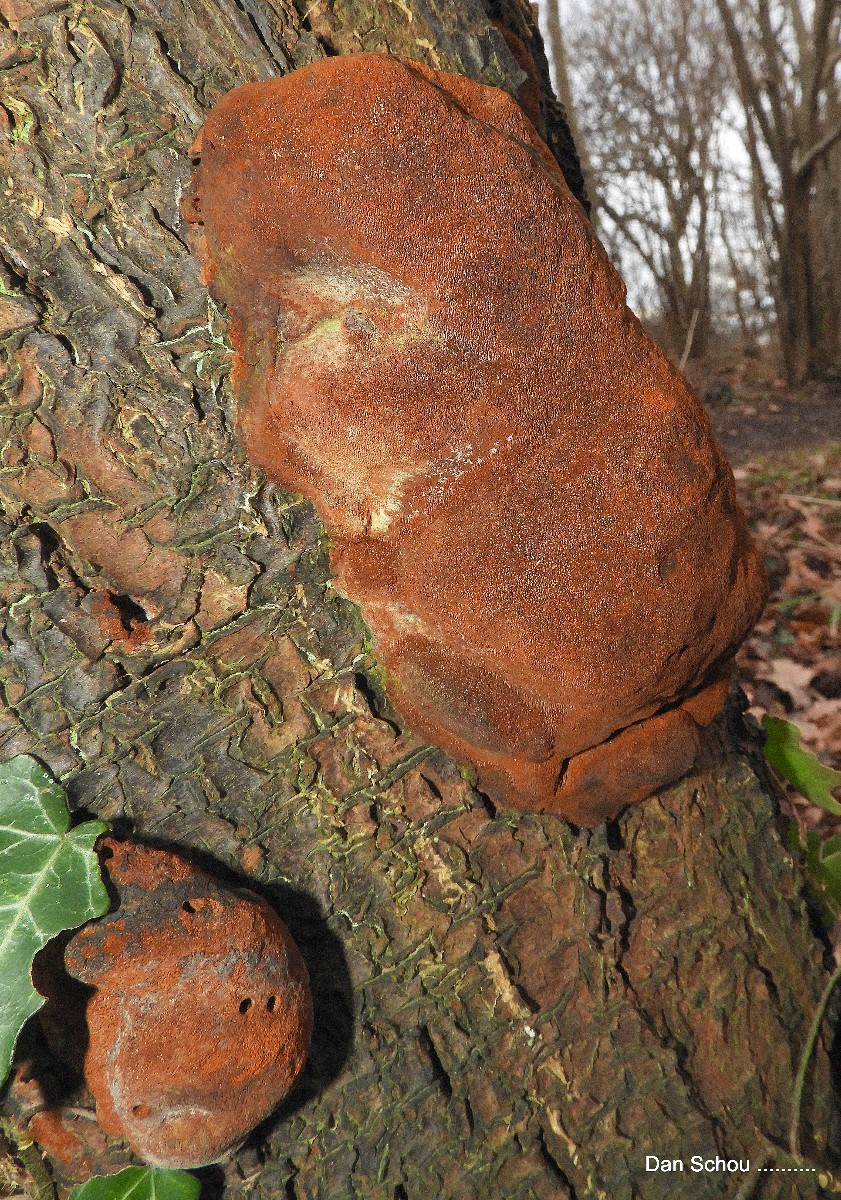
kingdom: Fungi
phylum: Basidiomycota
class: Agaricomycetes
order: Hymenochaetales
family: Hymenochaetaceae
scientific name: Hymenochaetaceae
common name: børstesvampfamilien
